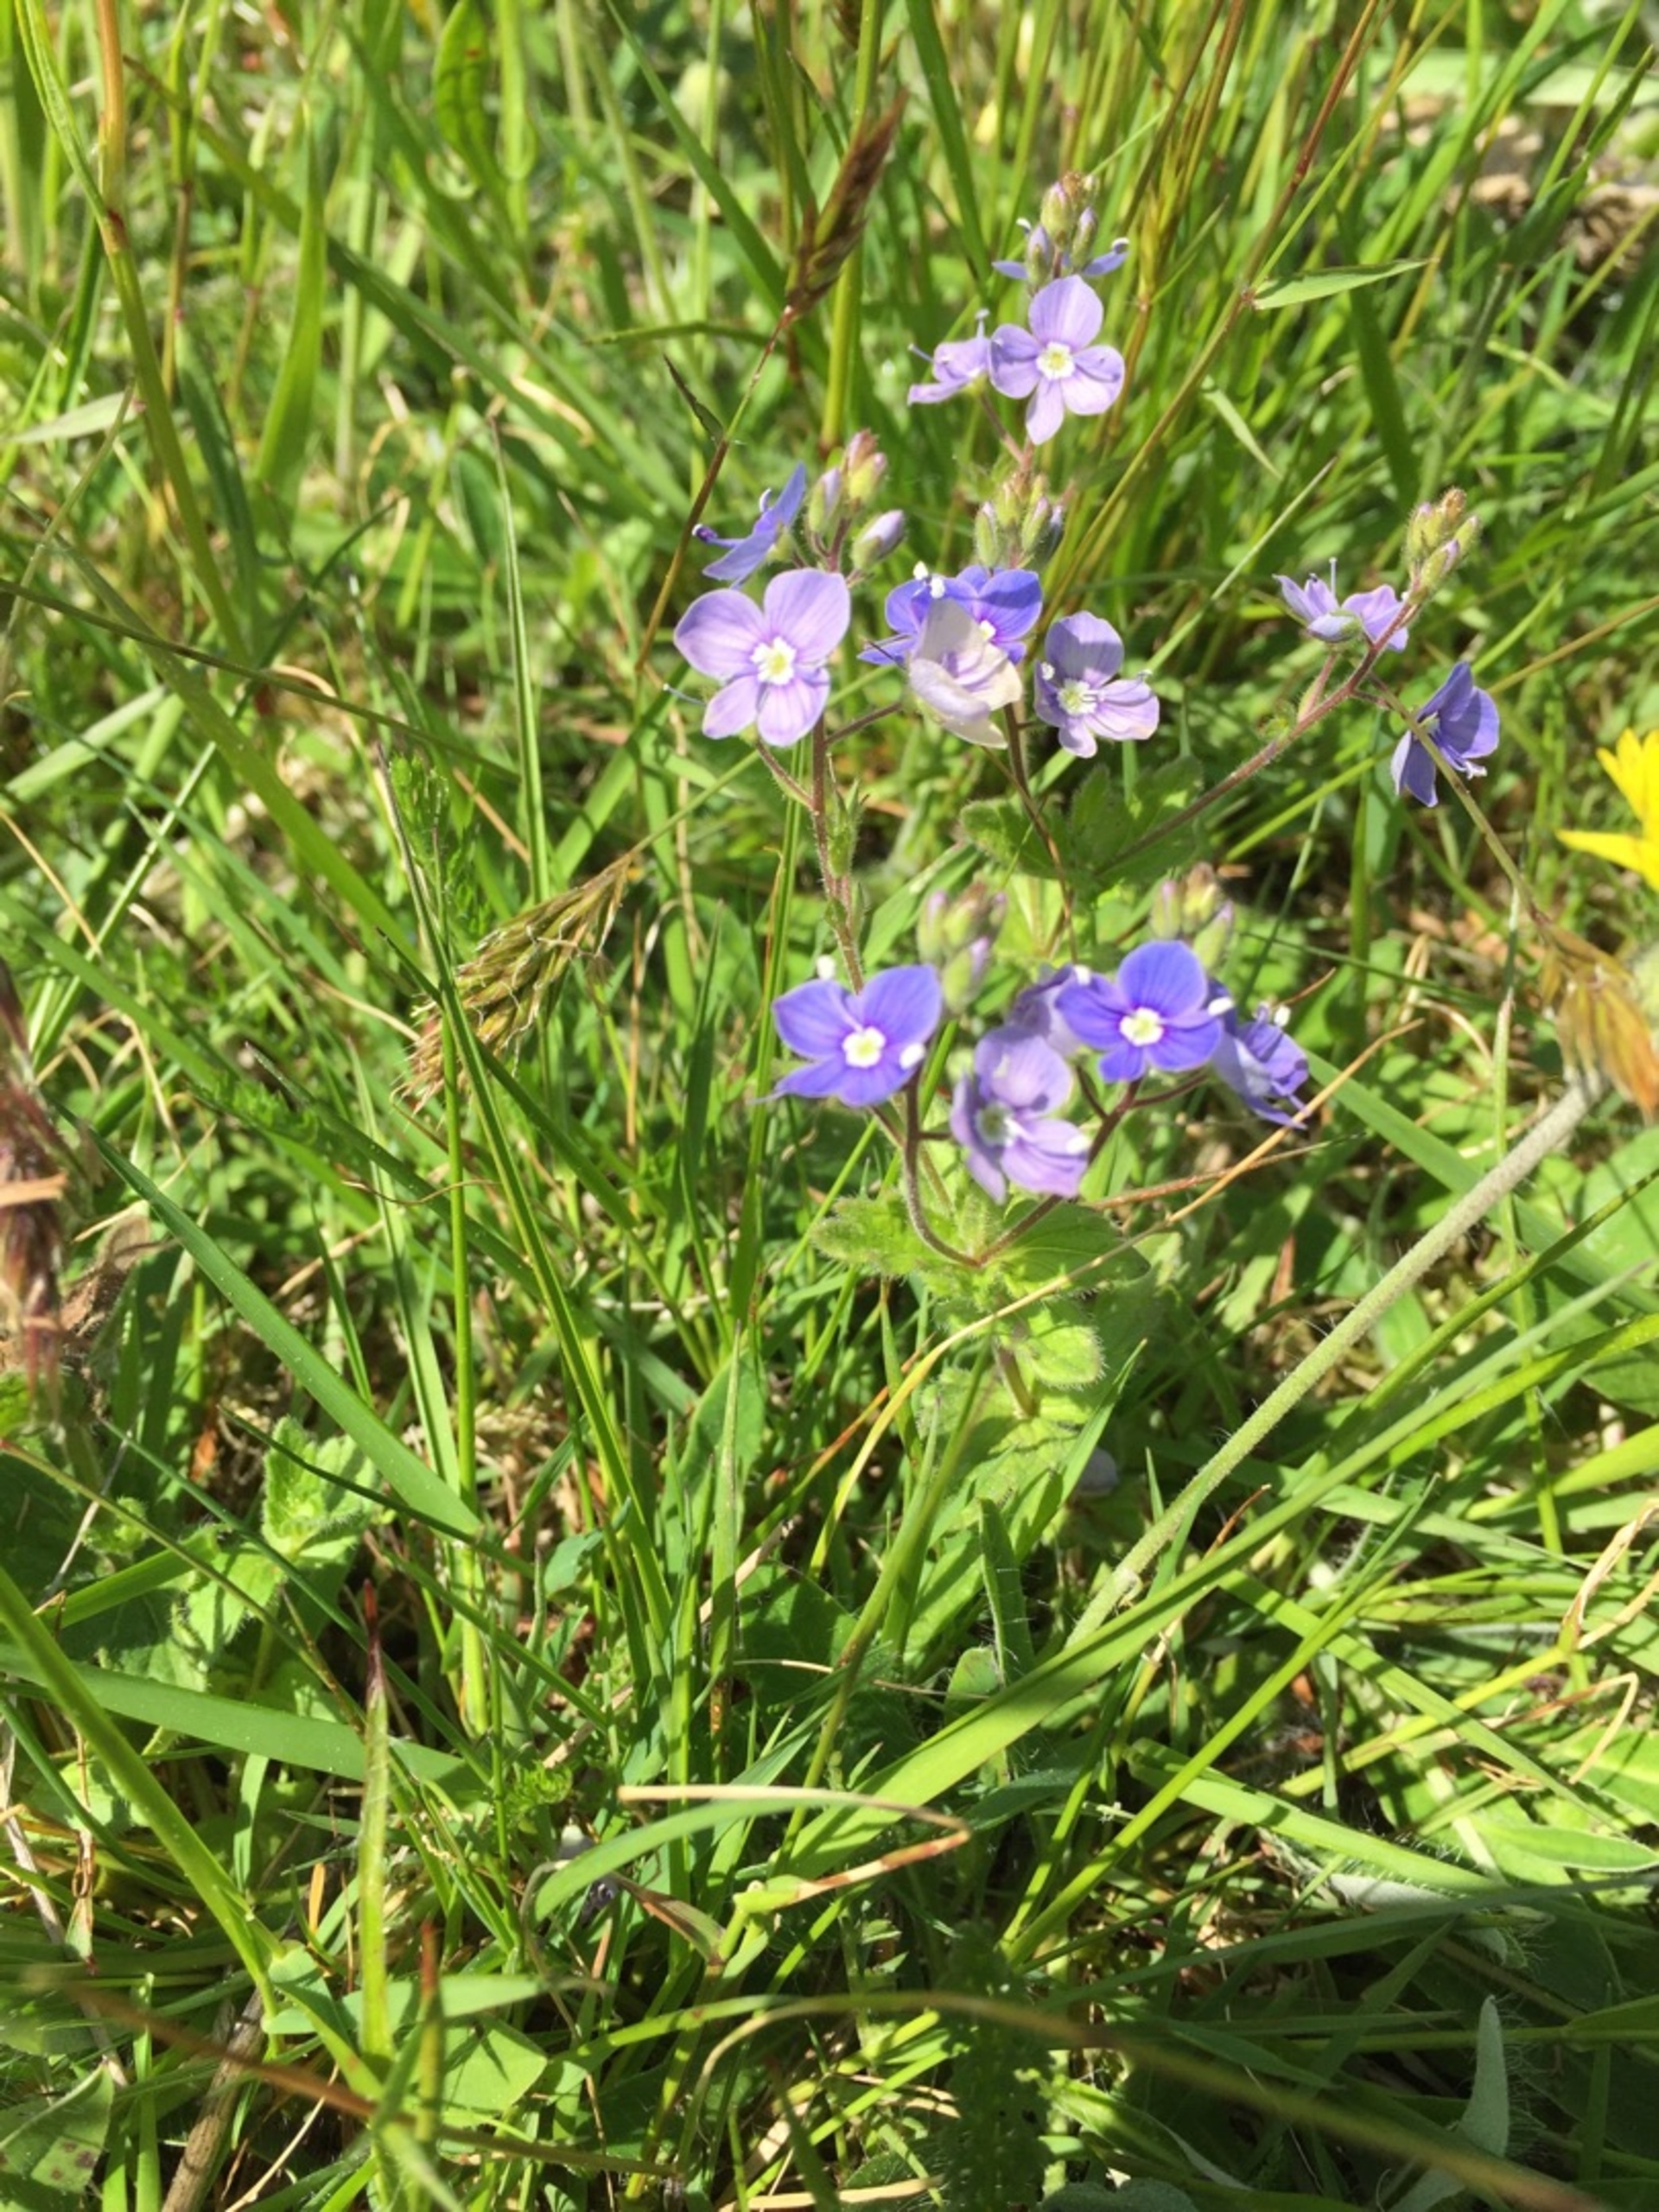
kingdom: Plantae
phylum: Tracheophyta
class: Magnoliopsida
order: Lamiales
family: Plantaginaceae
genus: Veronica
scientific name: Veronica chamaedrys
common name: Tveskægget ærenpris
